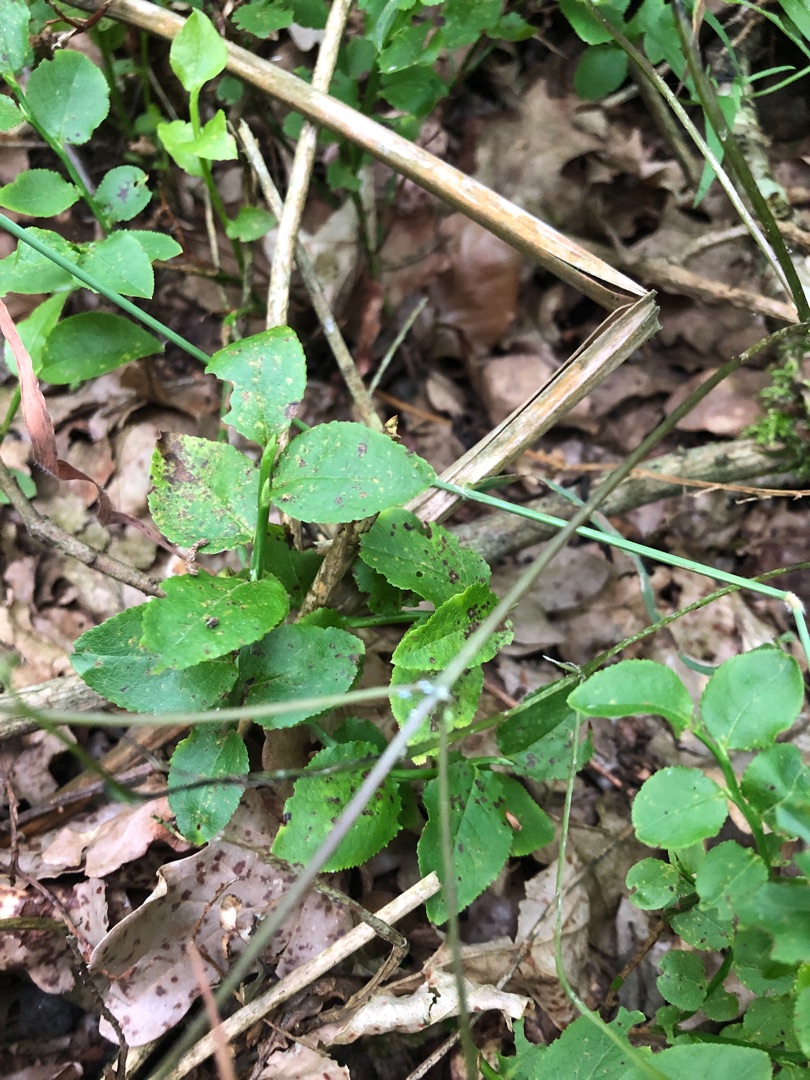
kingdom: Plantae
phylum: Tracheophyta
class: Magnoliopsida
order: Ericales
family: Ericaceae
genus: Vaccinium
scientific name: Vaccinium myrtillus
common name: Blåbær
